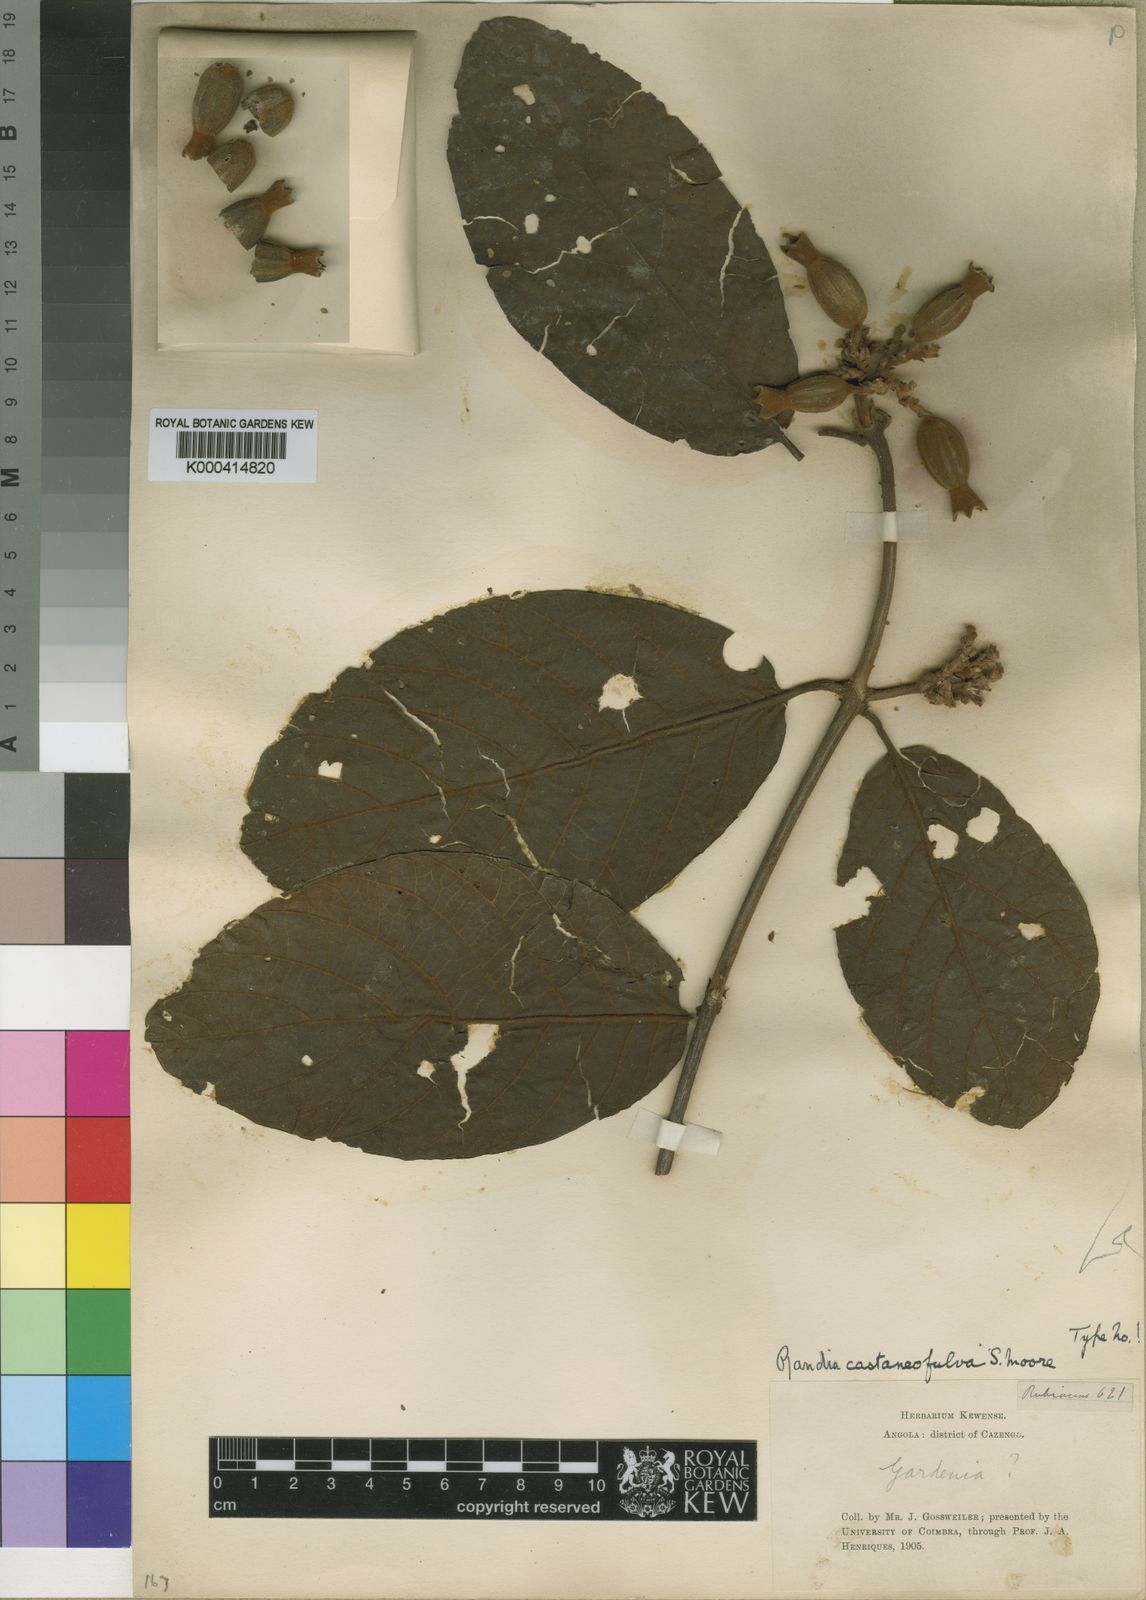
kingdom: Plantae
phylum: Tracheophyta
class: Magnoliopsida
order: Gentianales
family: Rubiaceae
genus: Aoranthe
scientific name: Aoranthe castaneofulva
